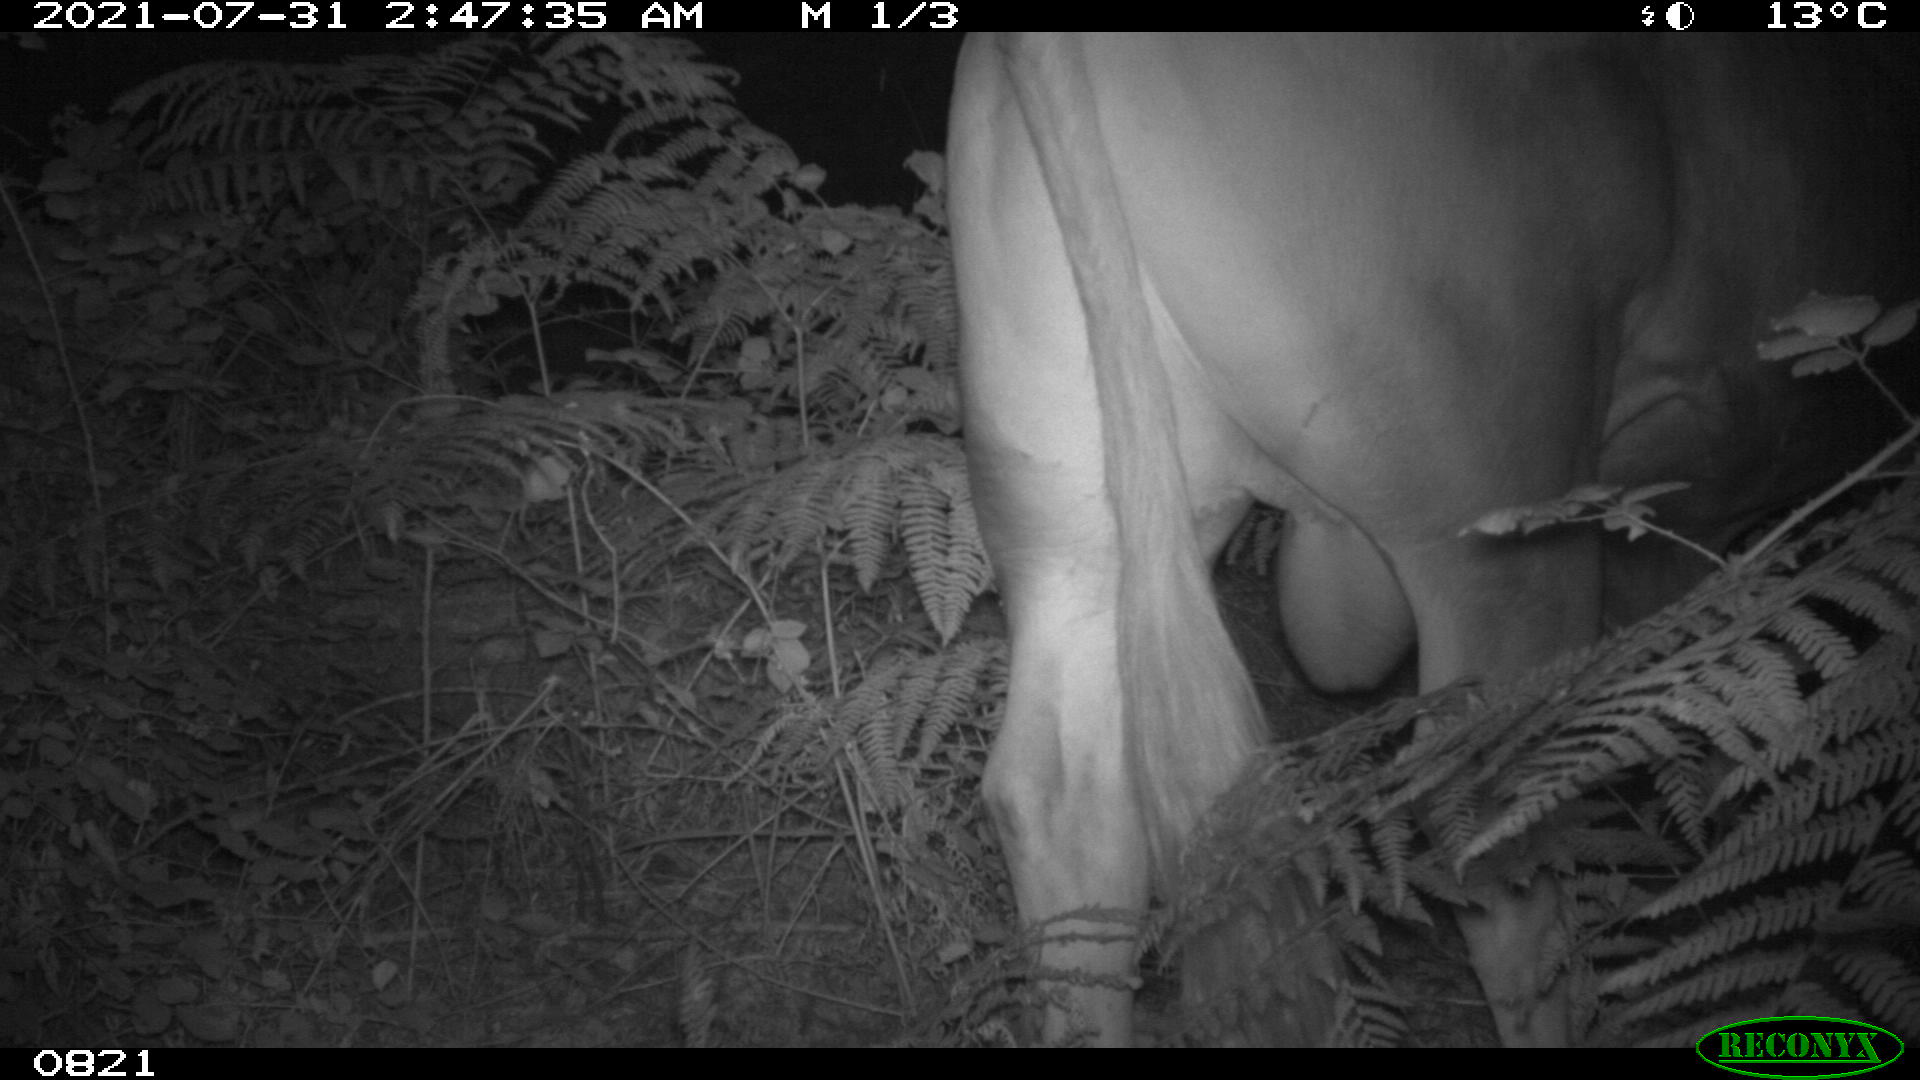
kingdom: Animalia
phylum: Chordata
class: Mammalia
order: Artiodactyla
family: Bovidae
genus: Bos
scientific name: Bos taurus
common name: Domesticated cattle
